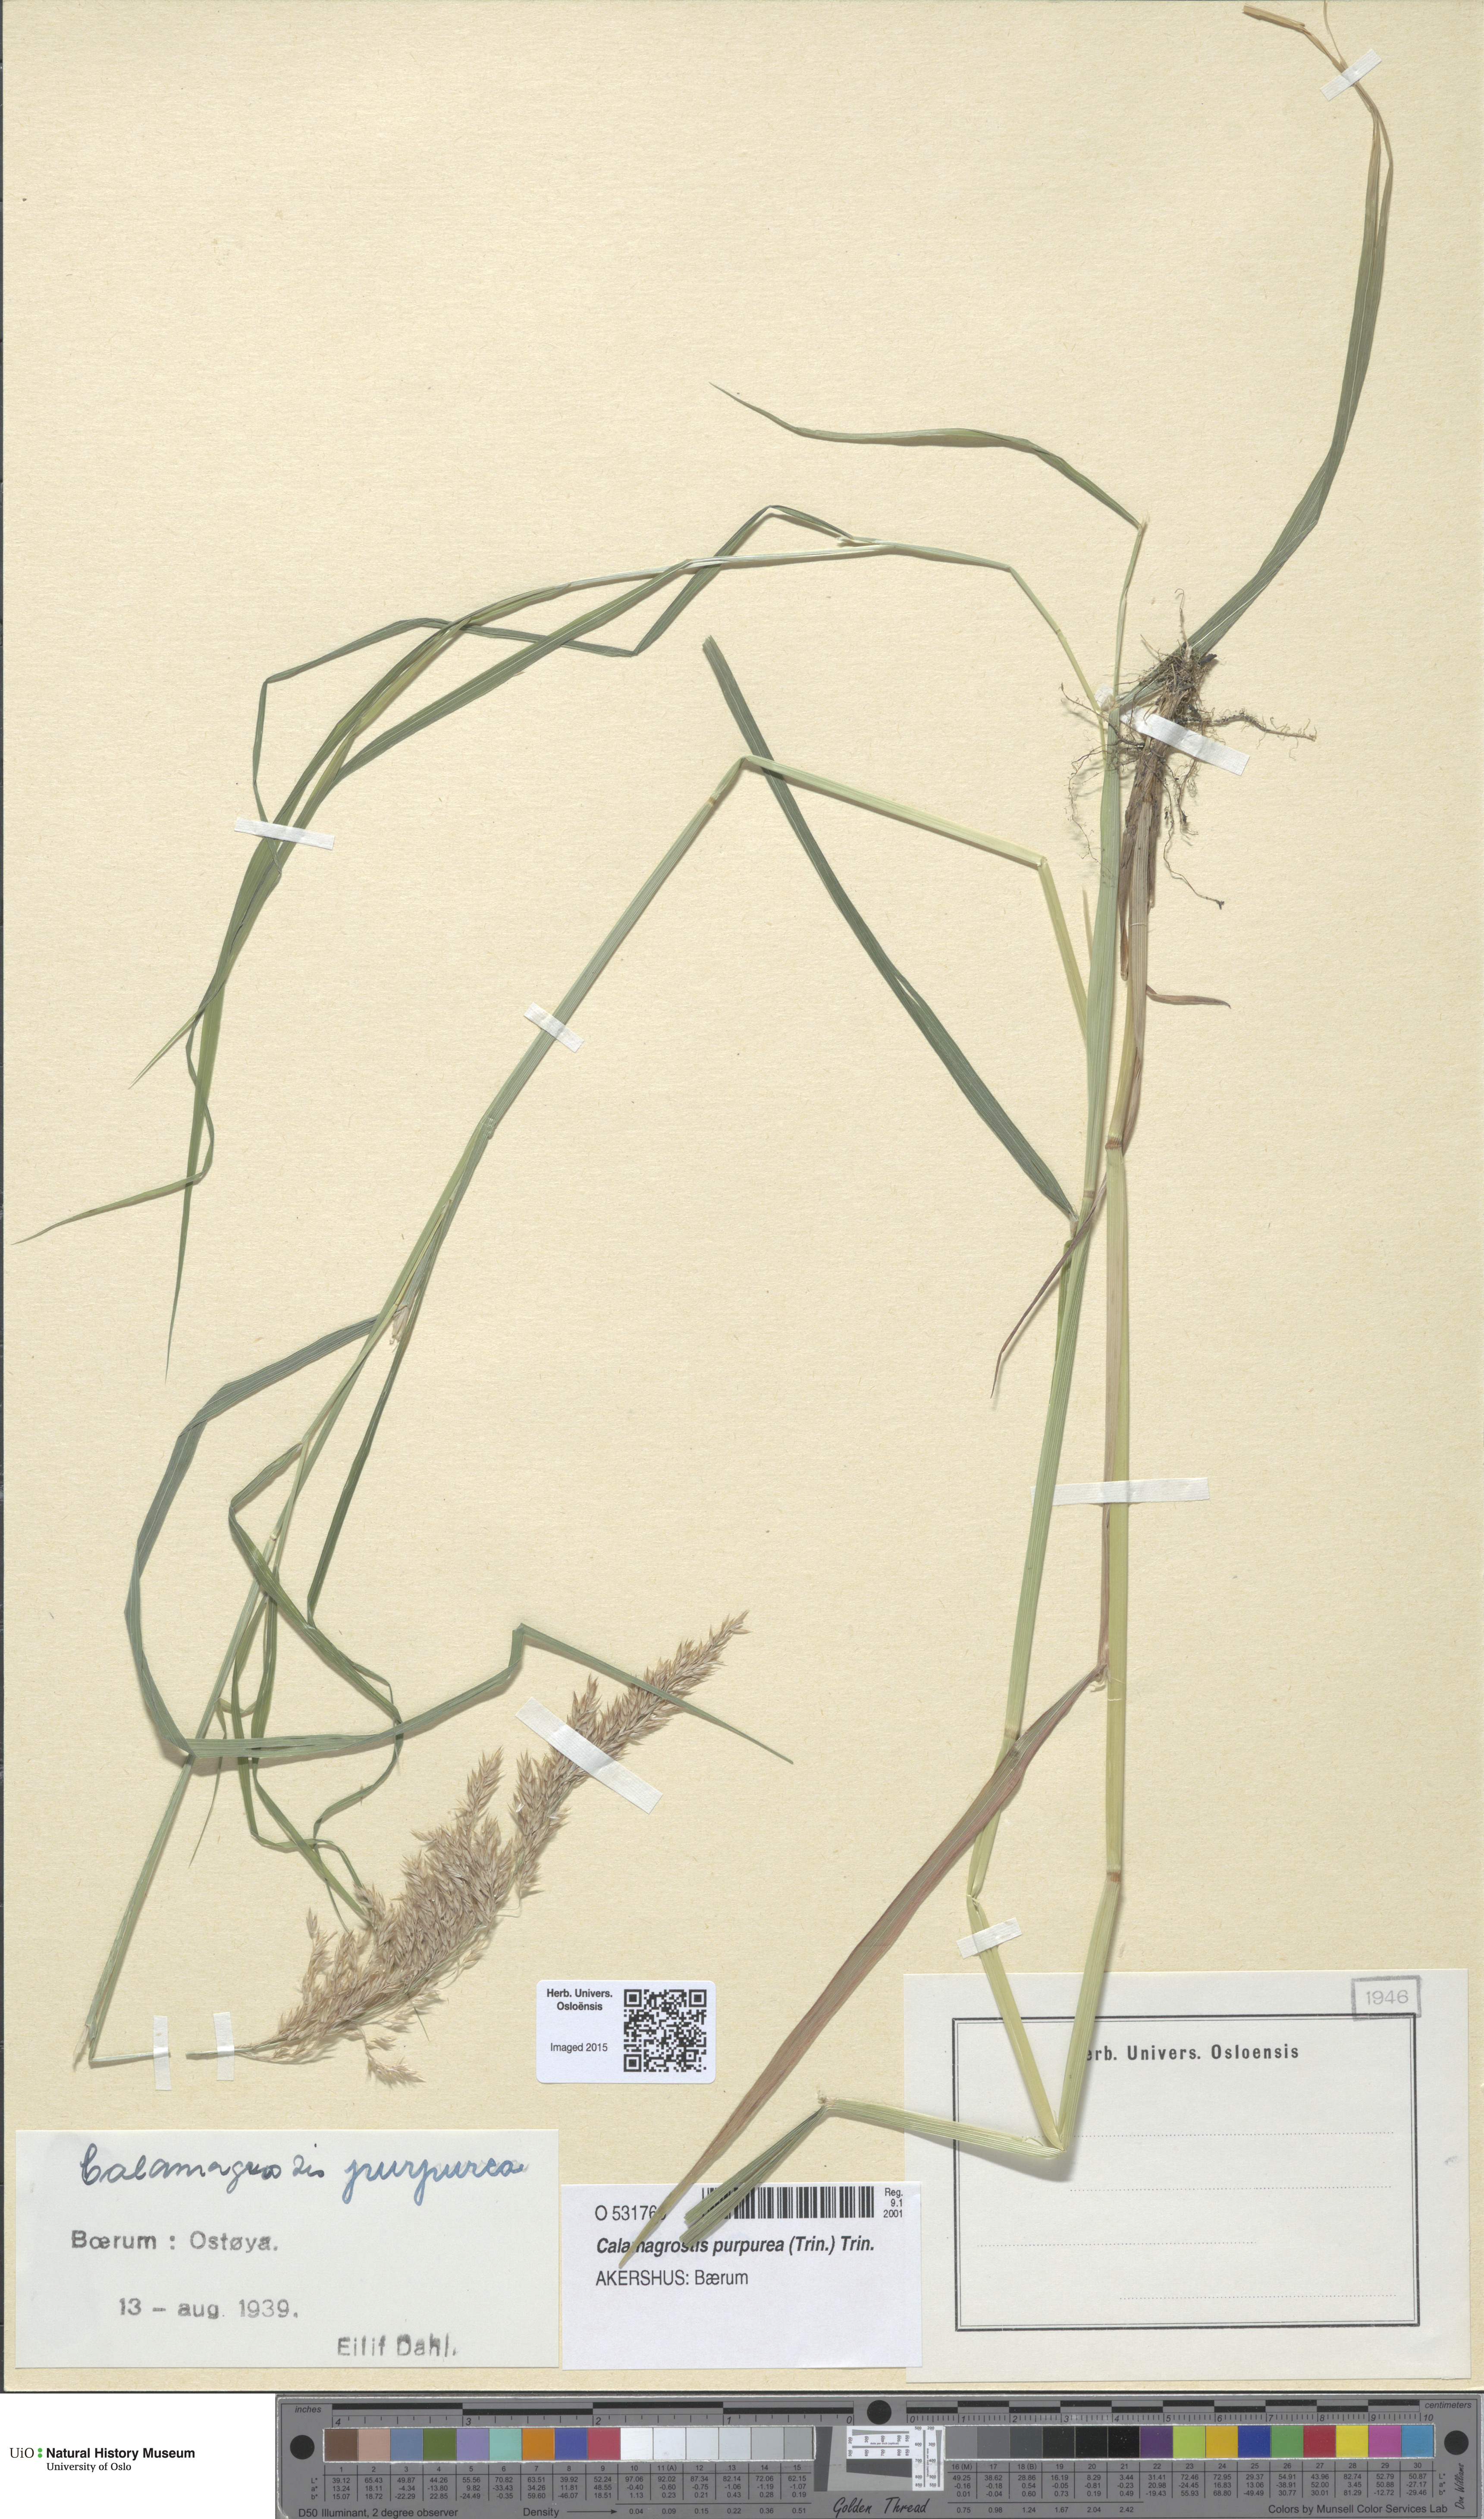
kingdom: Plantae
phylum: Tracheophyta
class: Liliopsida
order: Poales
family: Poaceae
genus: Calamagrostis
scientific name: Calamagrostis purpurea
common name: Scandinavian small-reed
